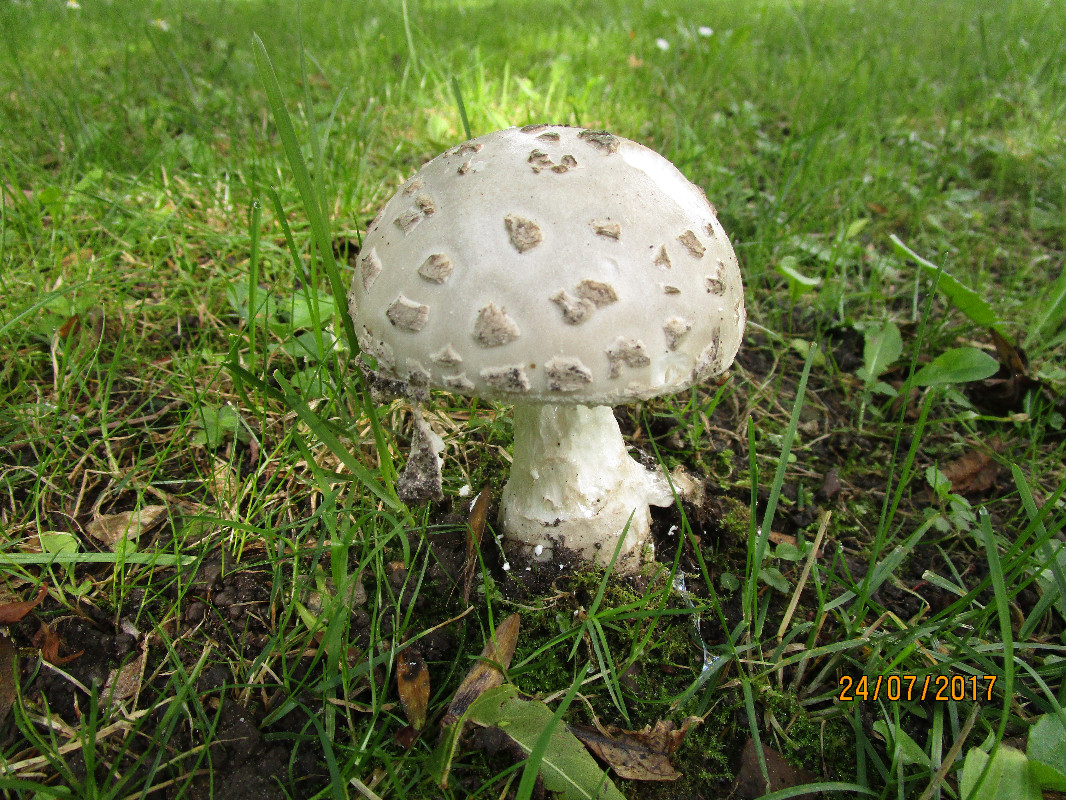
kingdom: Fungi
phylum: Basidiomycota
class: Agaricomycetes
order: Agaricales
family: Amanitaceae
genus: Amanita
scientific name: Amanita
